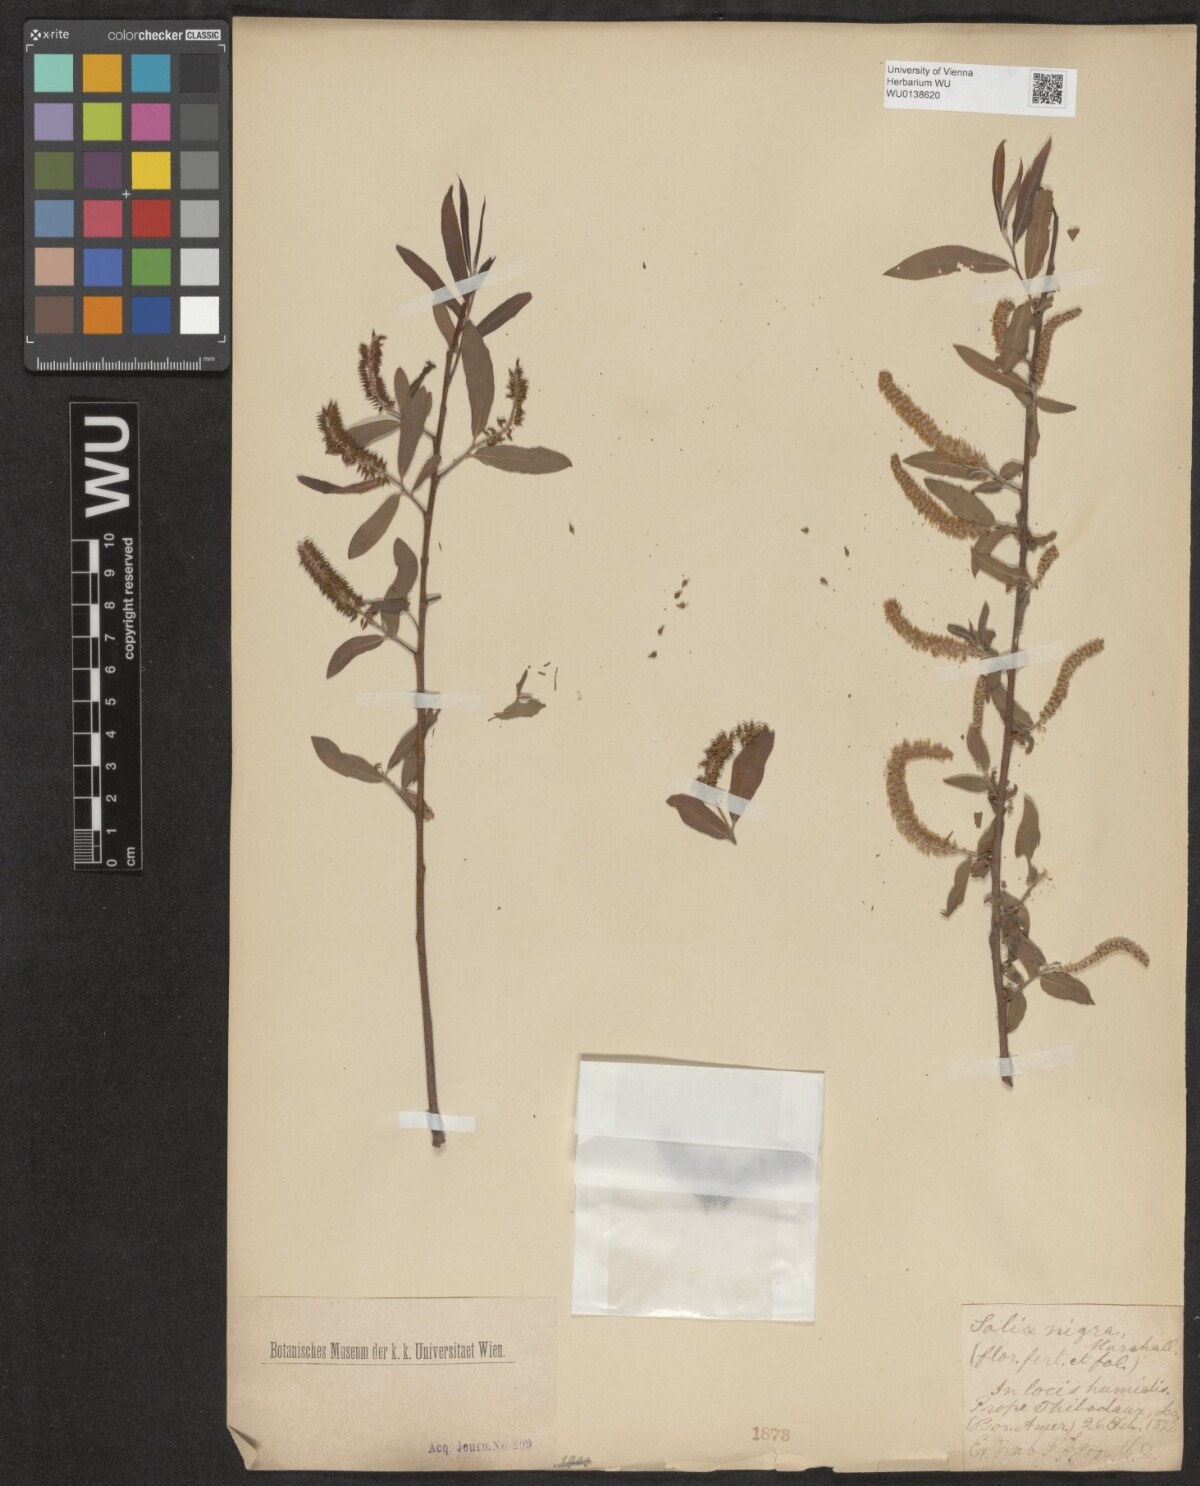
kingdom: Plantae
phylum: Tracheophyta
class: Magnoliopsida
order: Malpighiales
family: Salicaceae
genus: Salix
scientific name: Salix nigra
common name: Black willow
